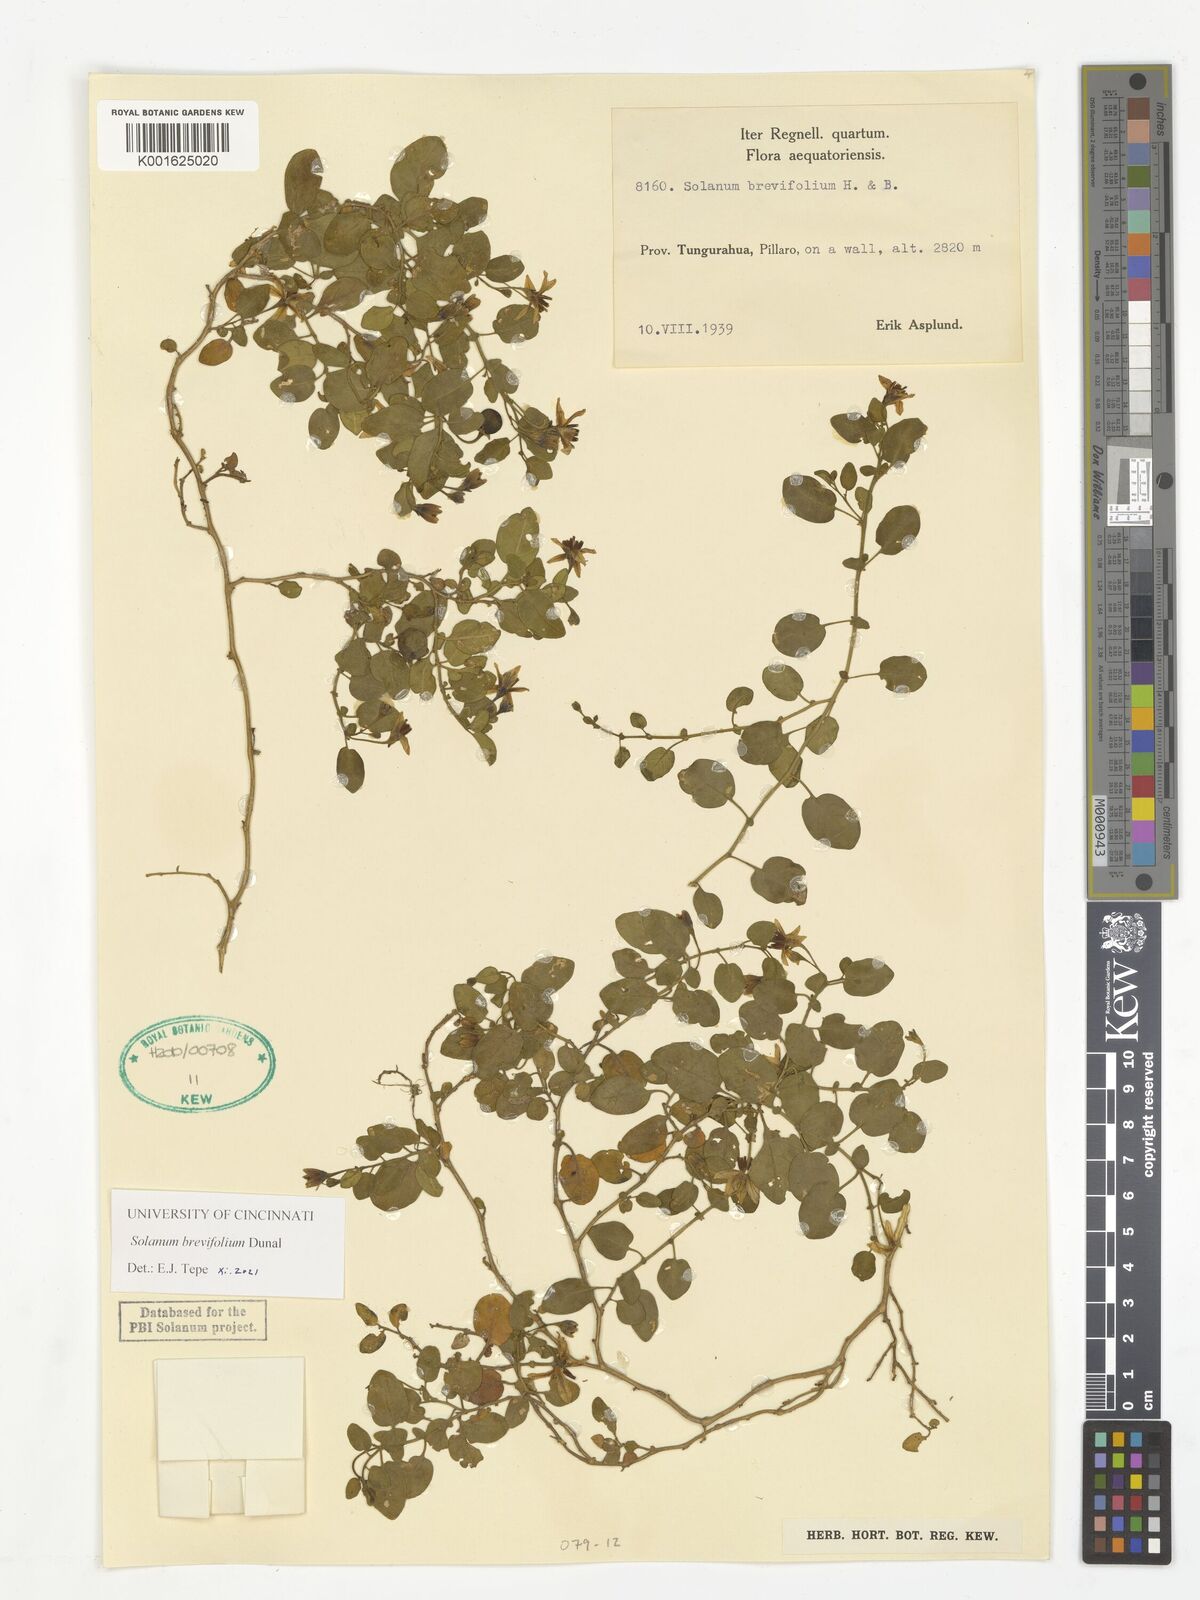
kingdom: Plantae
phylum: Tracheophyta
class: Magnoliopsida
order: Solanales
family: Solanaceae
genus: Solanum
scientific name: Solanum brevifolium
